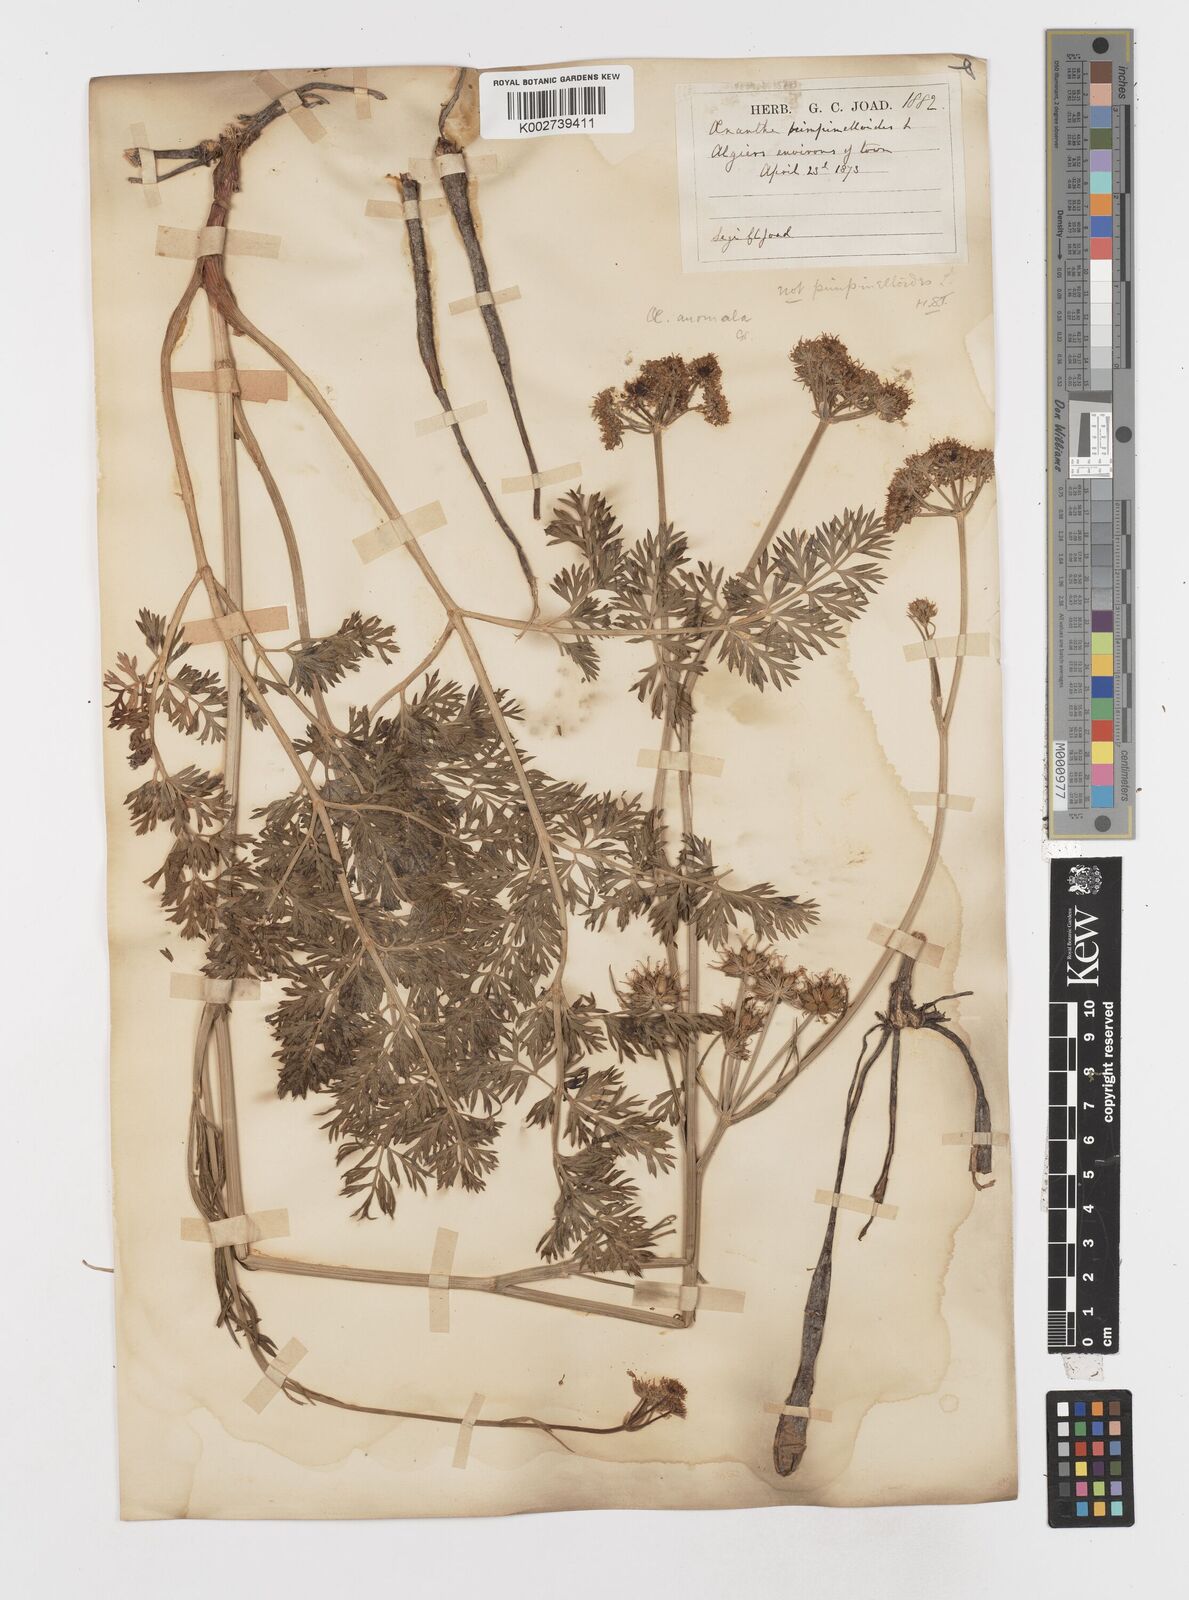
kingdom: Plantae
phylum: Tracheophyta
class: Magnoliopsida
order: Apiales
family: Apiaceae
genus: Oenanthe
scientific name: Oenanthe virgata
